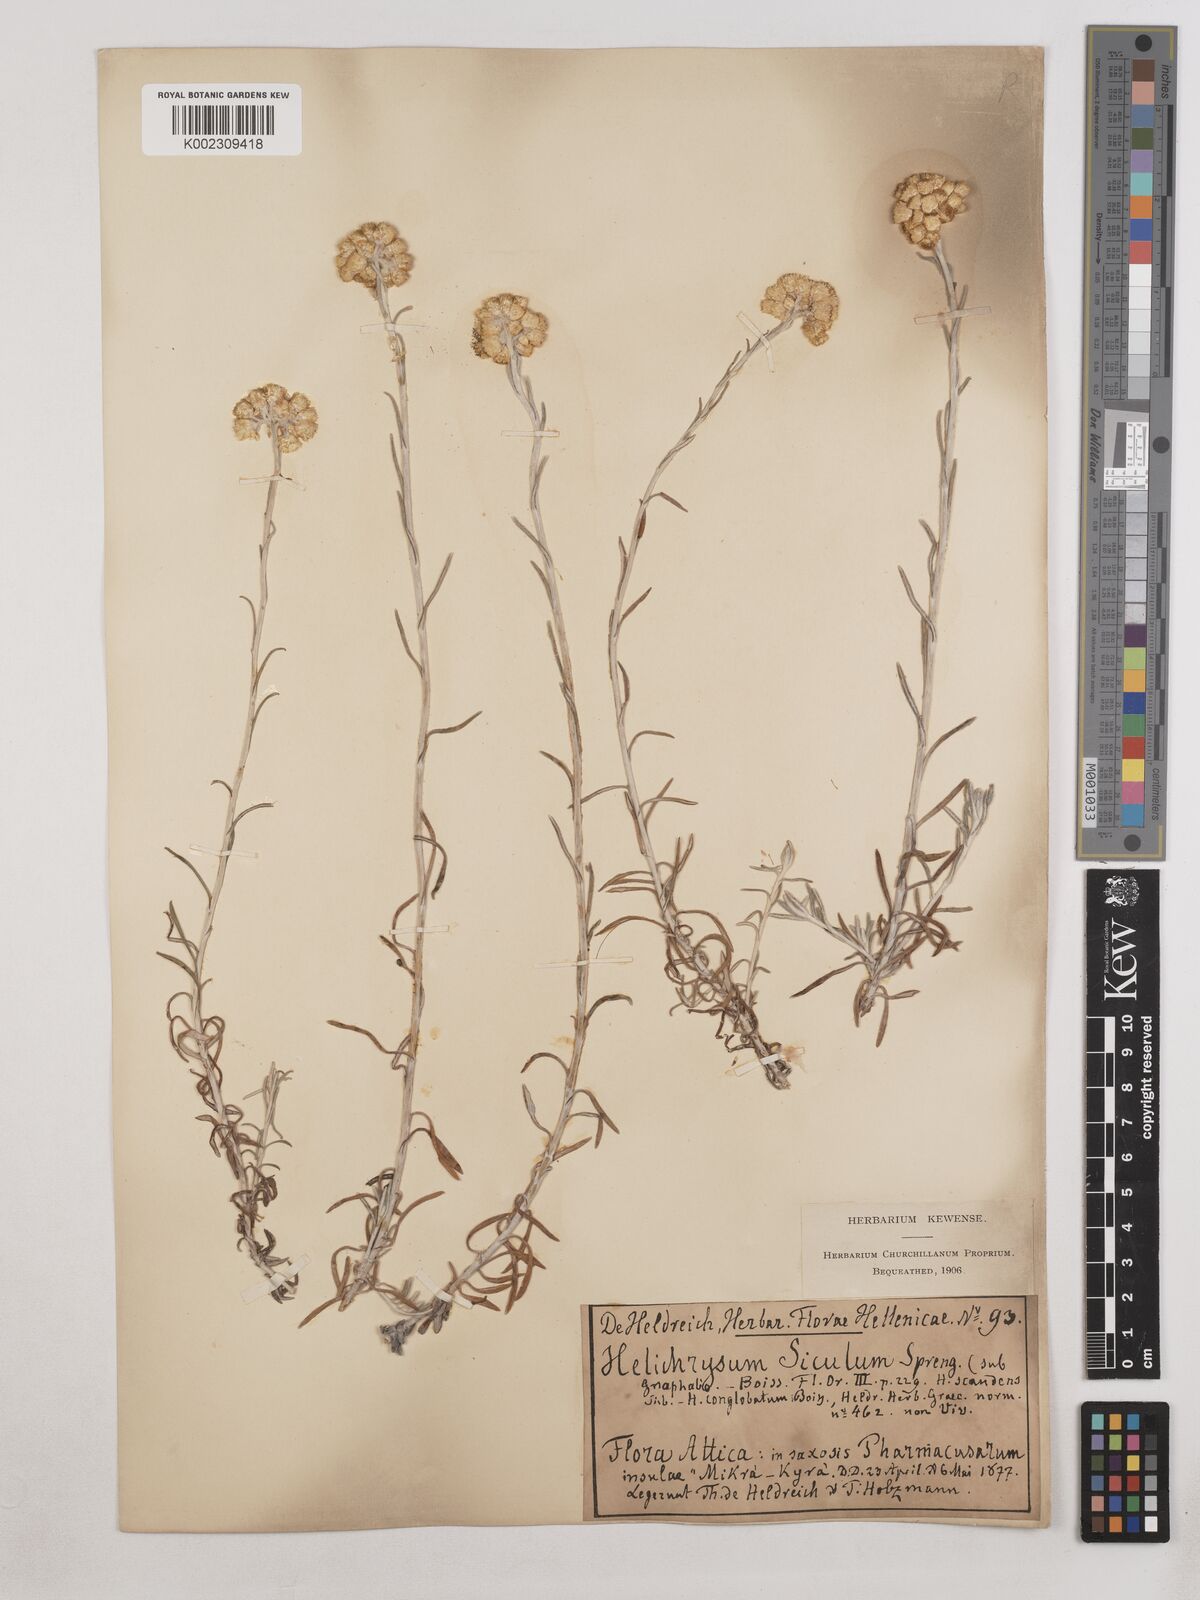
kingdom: Plantae
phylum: Tracheophyta
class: Magnoliopsida
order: Asterales
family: Asteraceae
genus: Helichrysum
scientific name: Helichrysum stoechas
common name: Goldilocks
